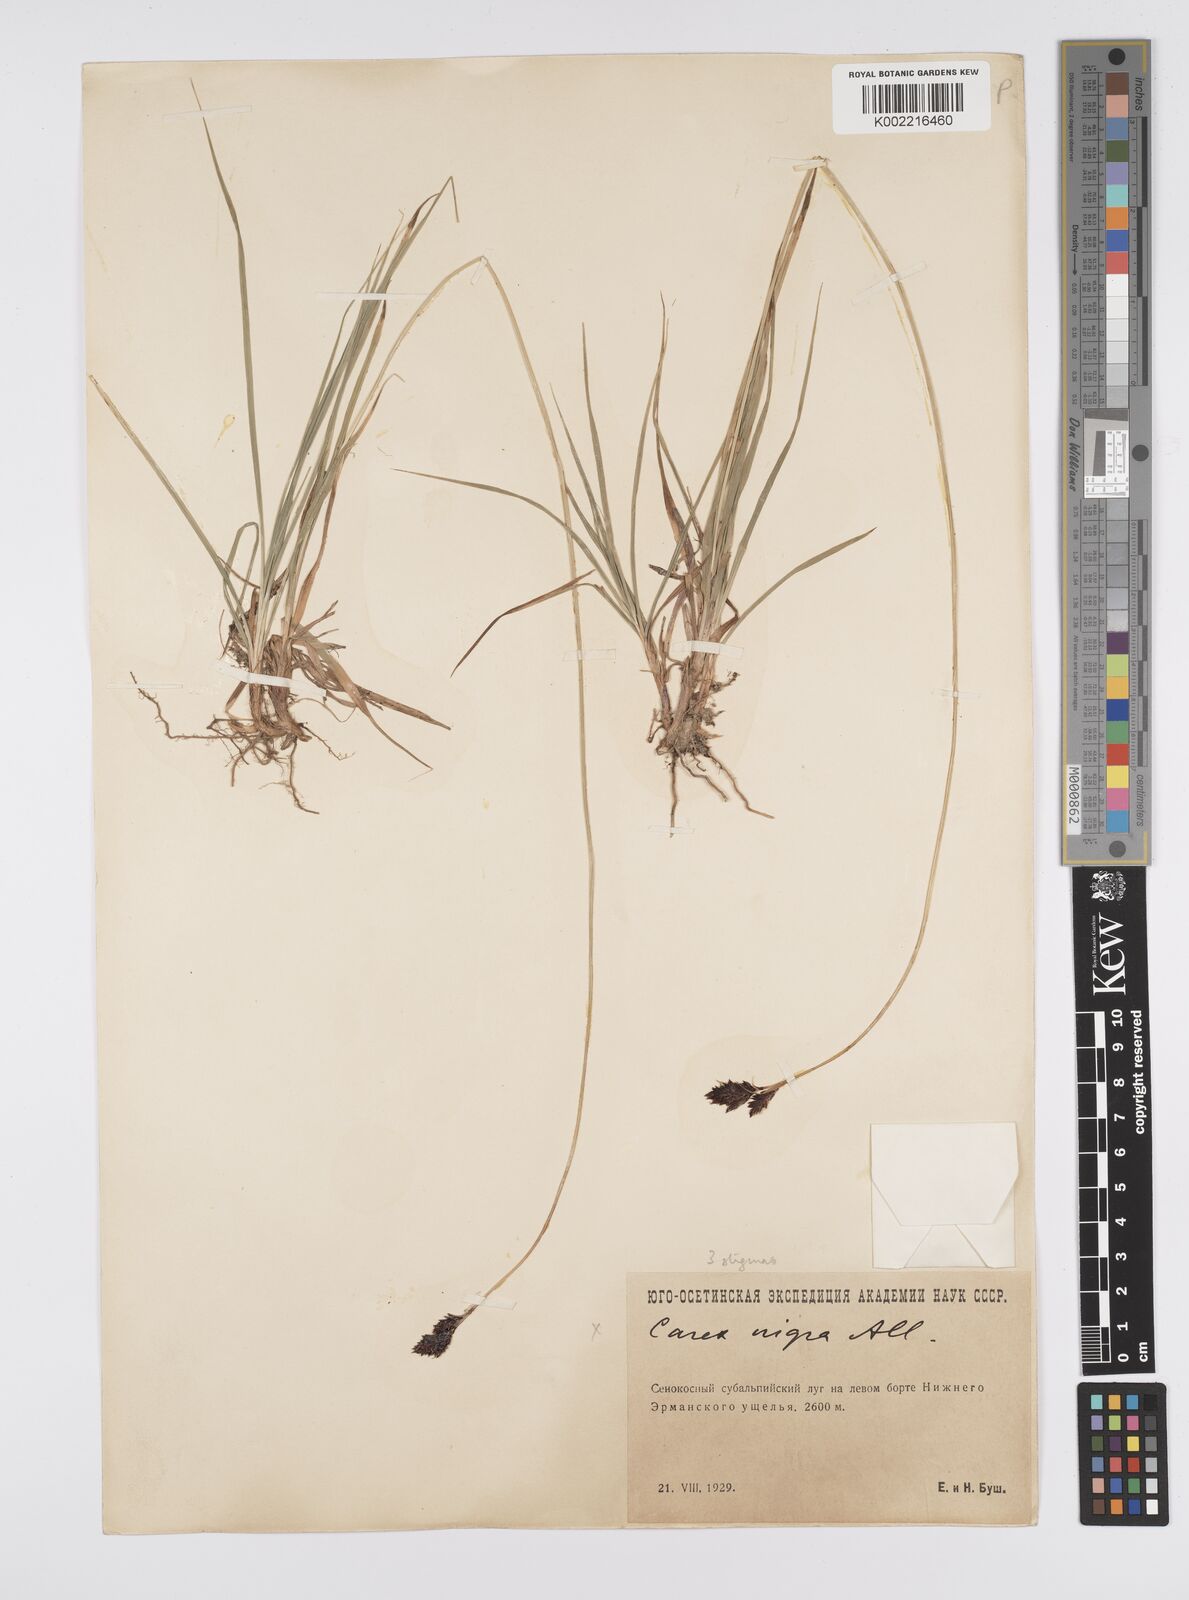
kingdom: Plantae
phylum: Tracheophyta
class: Liliopsida
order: Poales
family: Cyperaceae
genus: Carex
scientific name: Carex atrata
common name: Black alpine sedge
